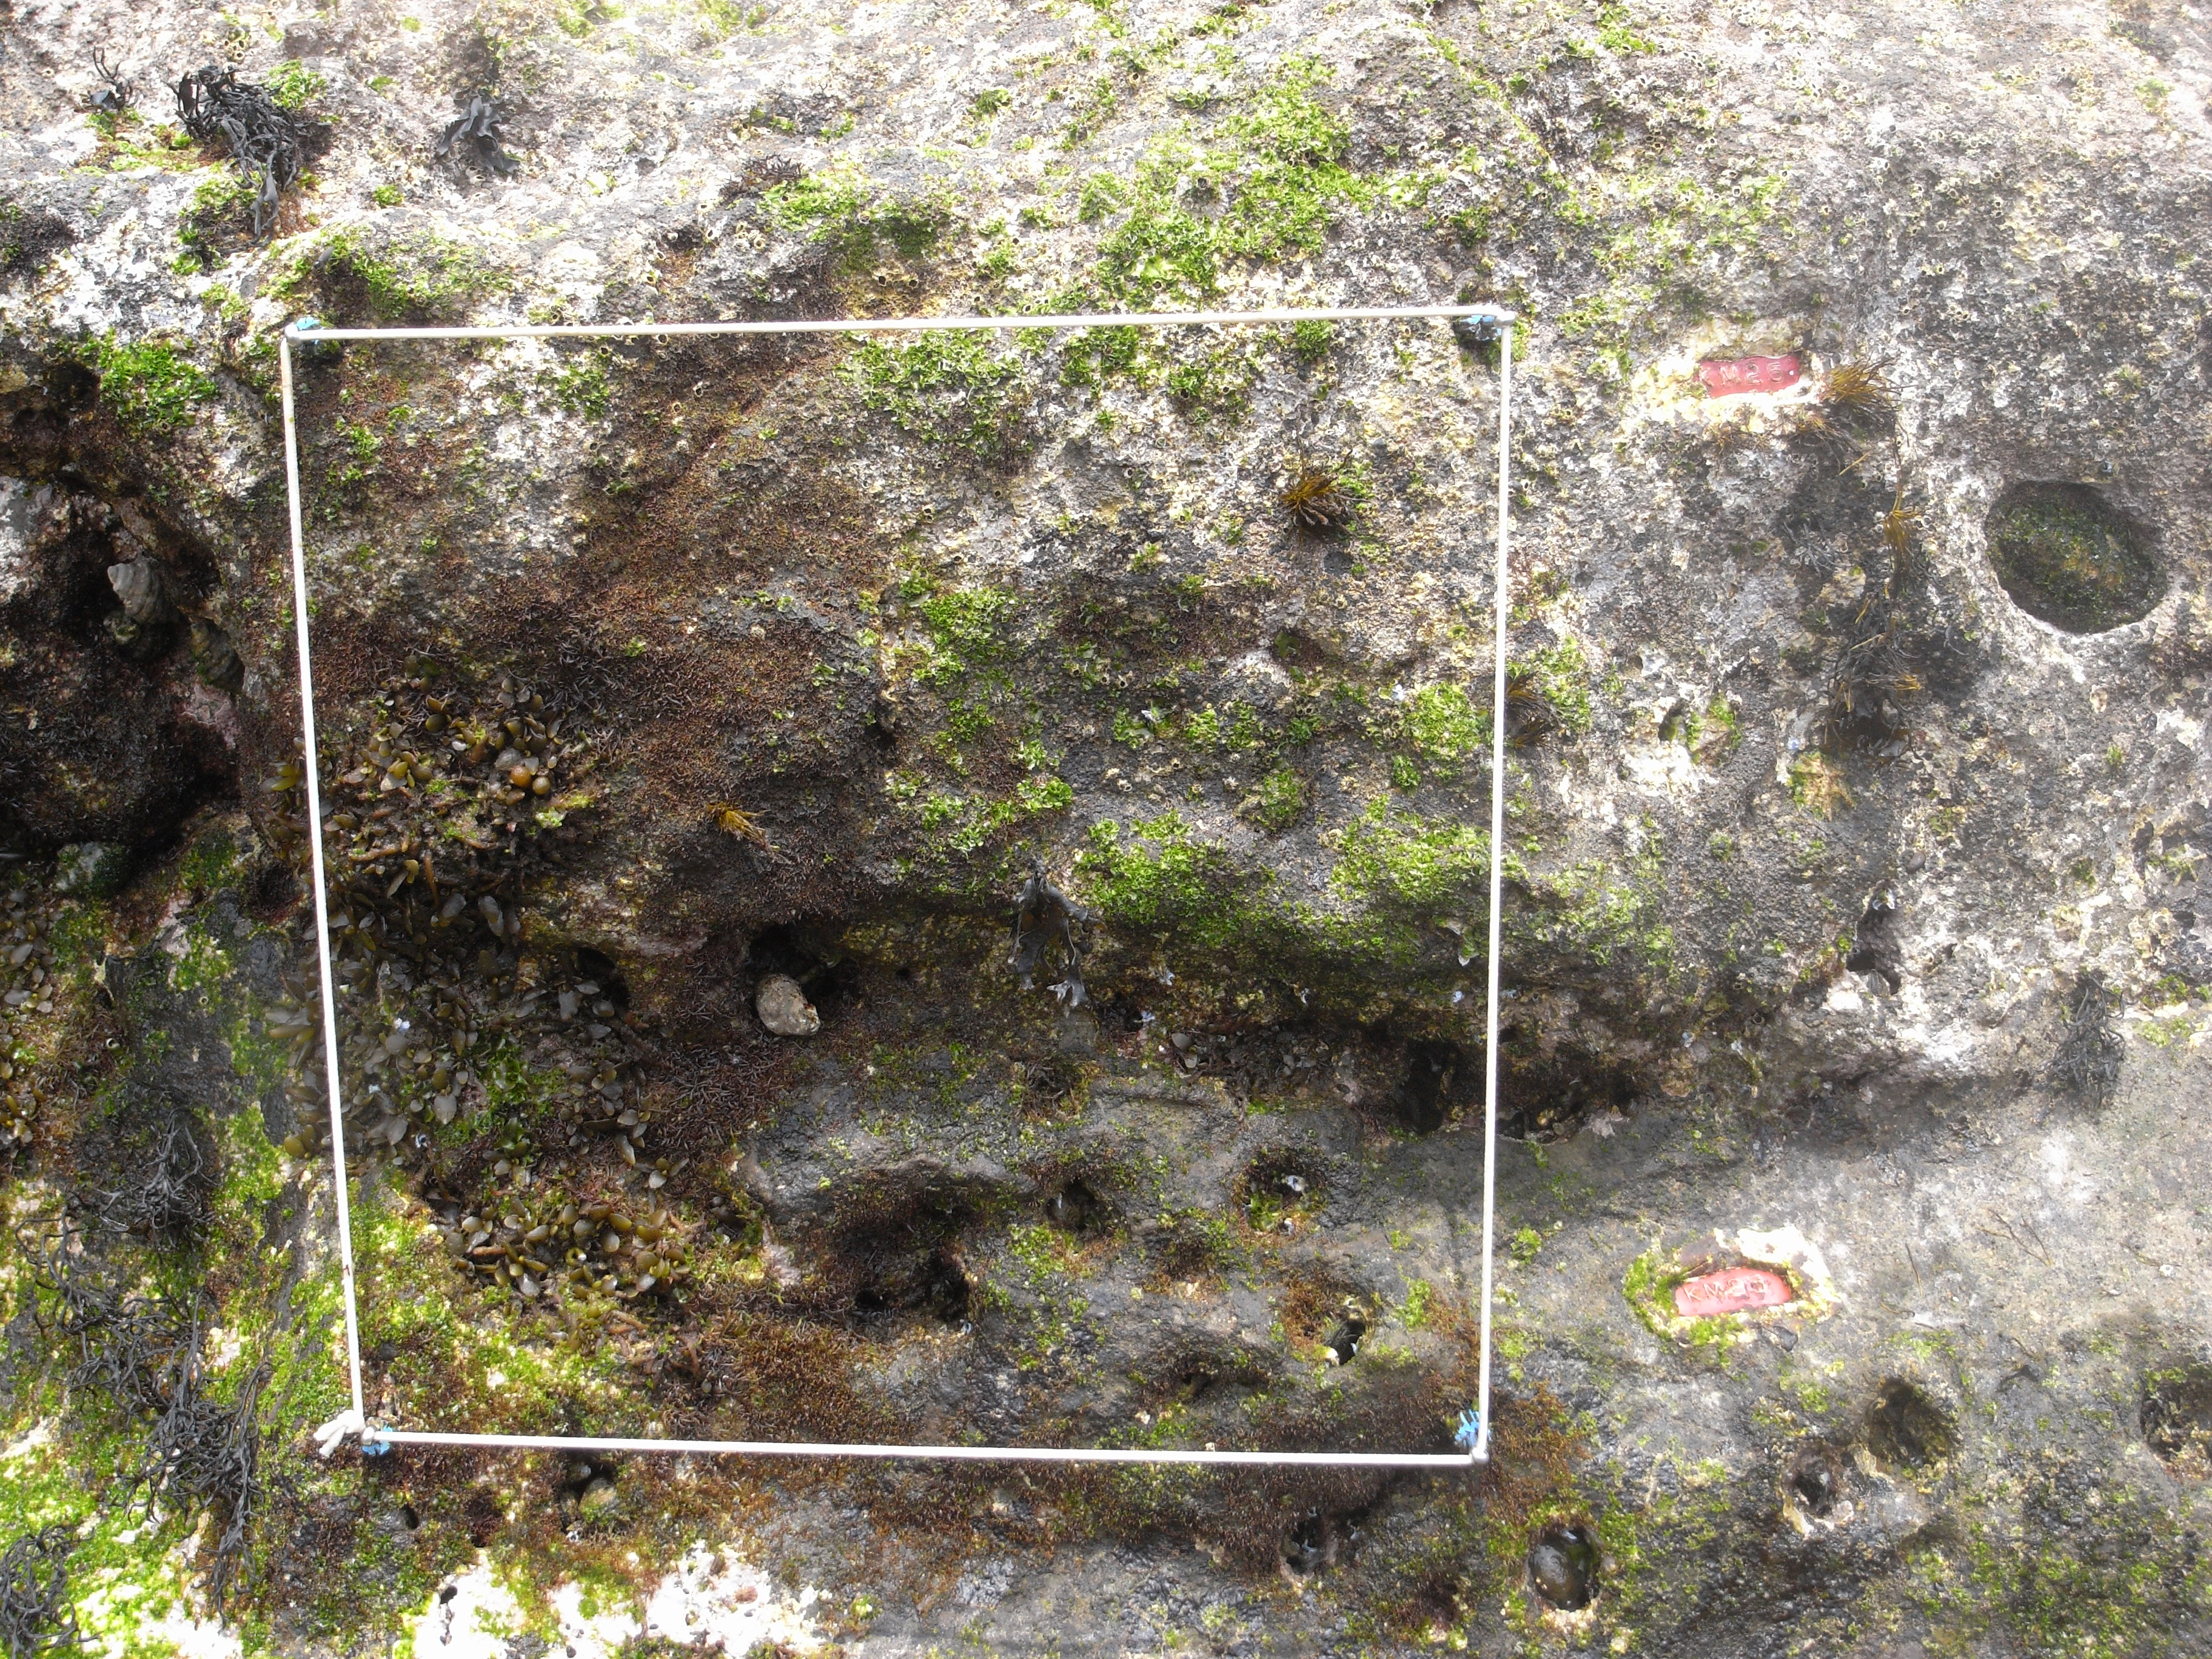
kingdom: Chromista
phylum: Ochrophyta
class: Phaeophyceae
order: Fucales
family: Sargassaceae
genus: Sargassum
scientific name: Sargassum fusiforme
